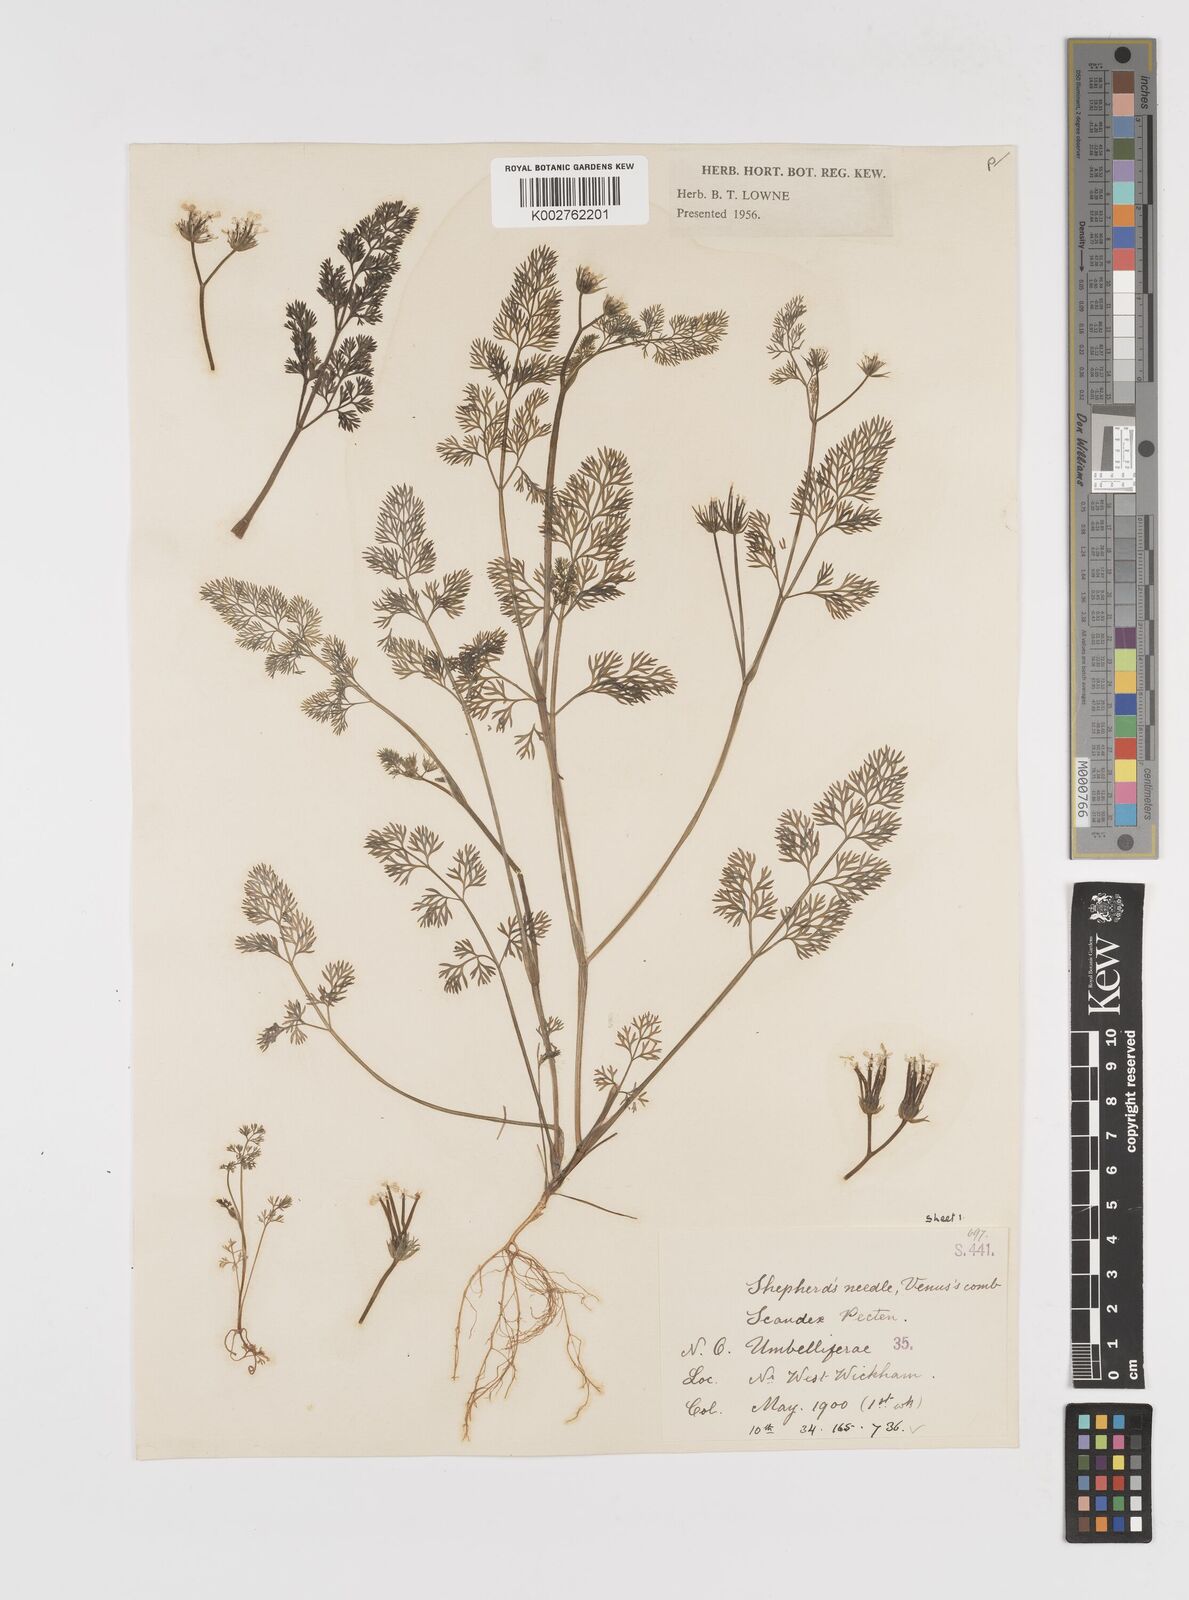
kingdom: Plantae
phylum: Tracheophyta
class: Magnoliopsida
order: Apiales
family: Apiaceae
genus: Scandix
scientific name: Scandix pecten-veneris
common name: Shepherd's-needle
